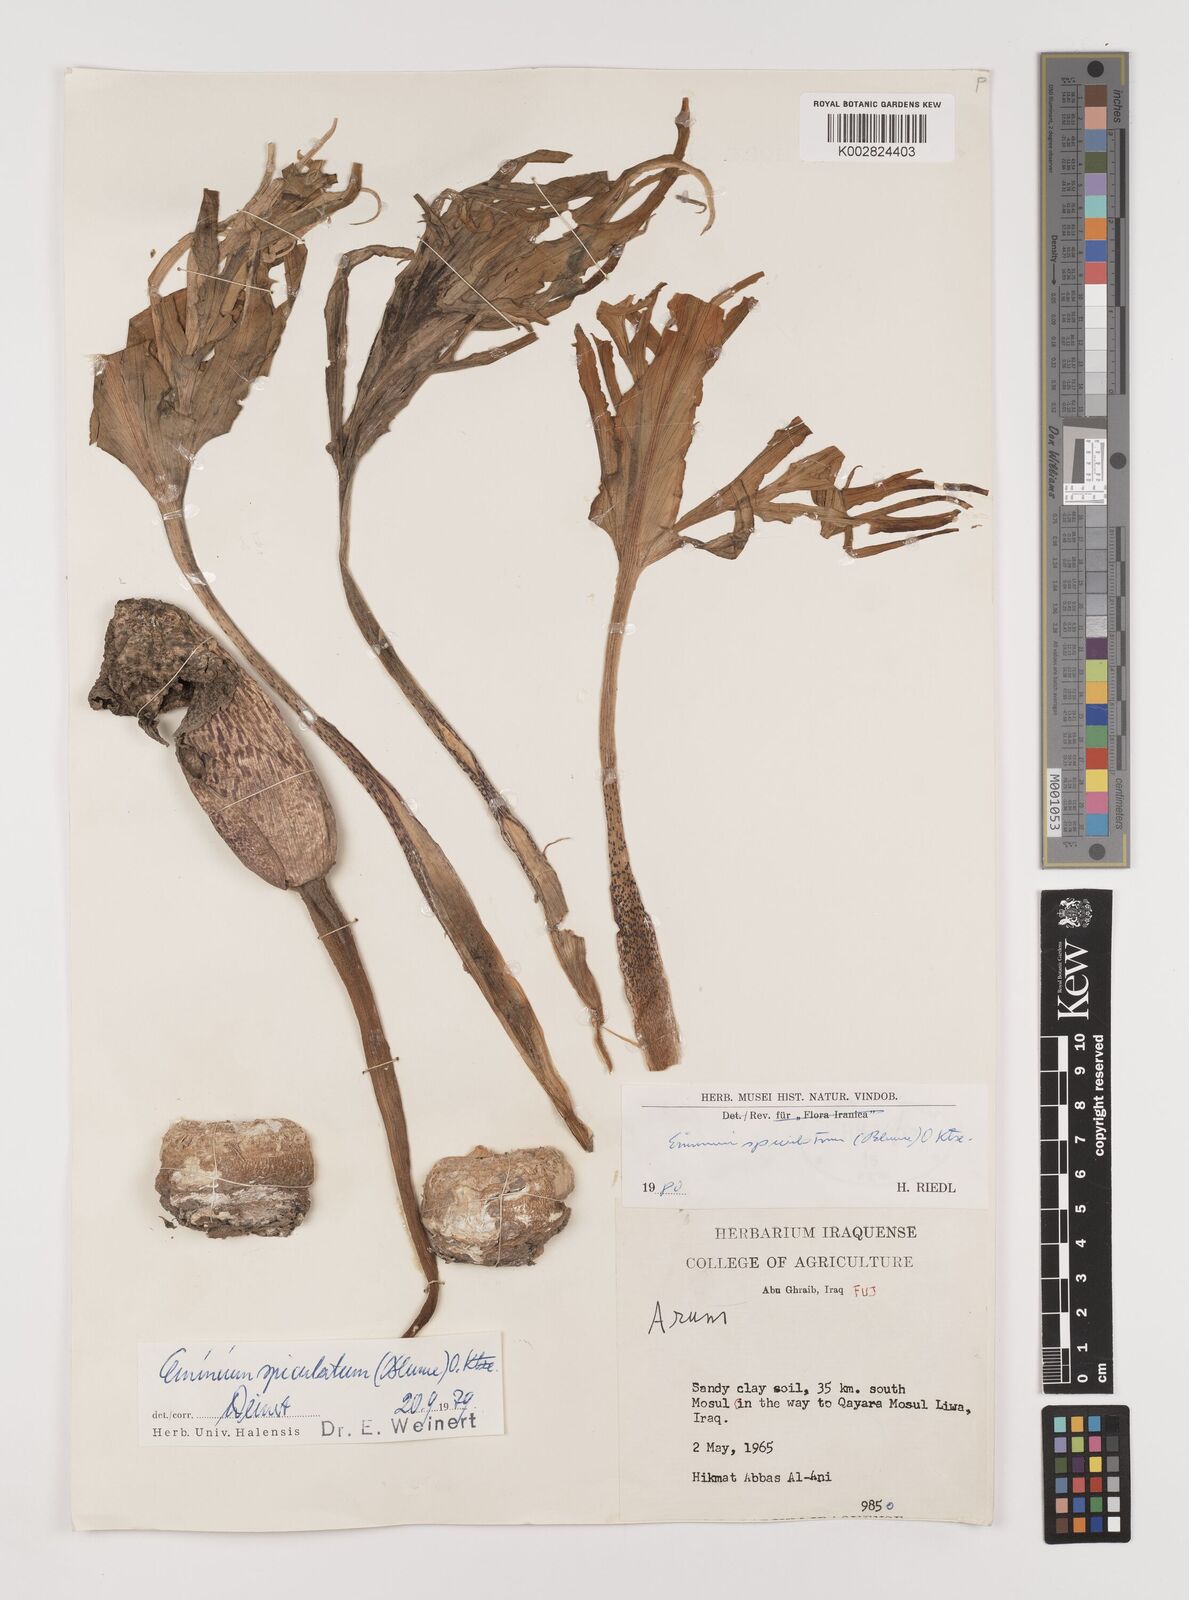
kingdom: Plantae
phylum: Tracheophyta
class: Liliopsida
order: Alismatales
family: Araceae
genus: Eminium
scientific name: Eminium spiculatum
